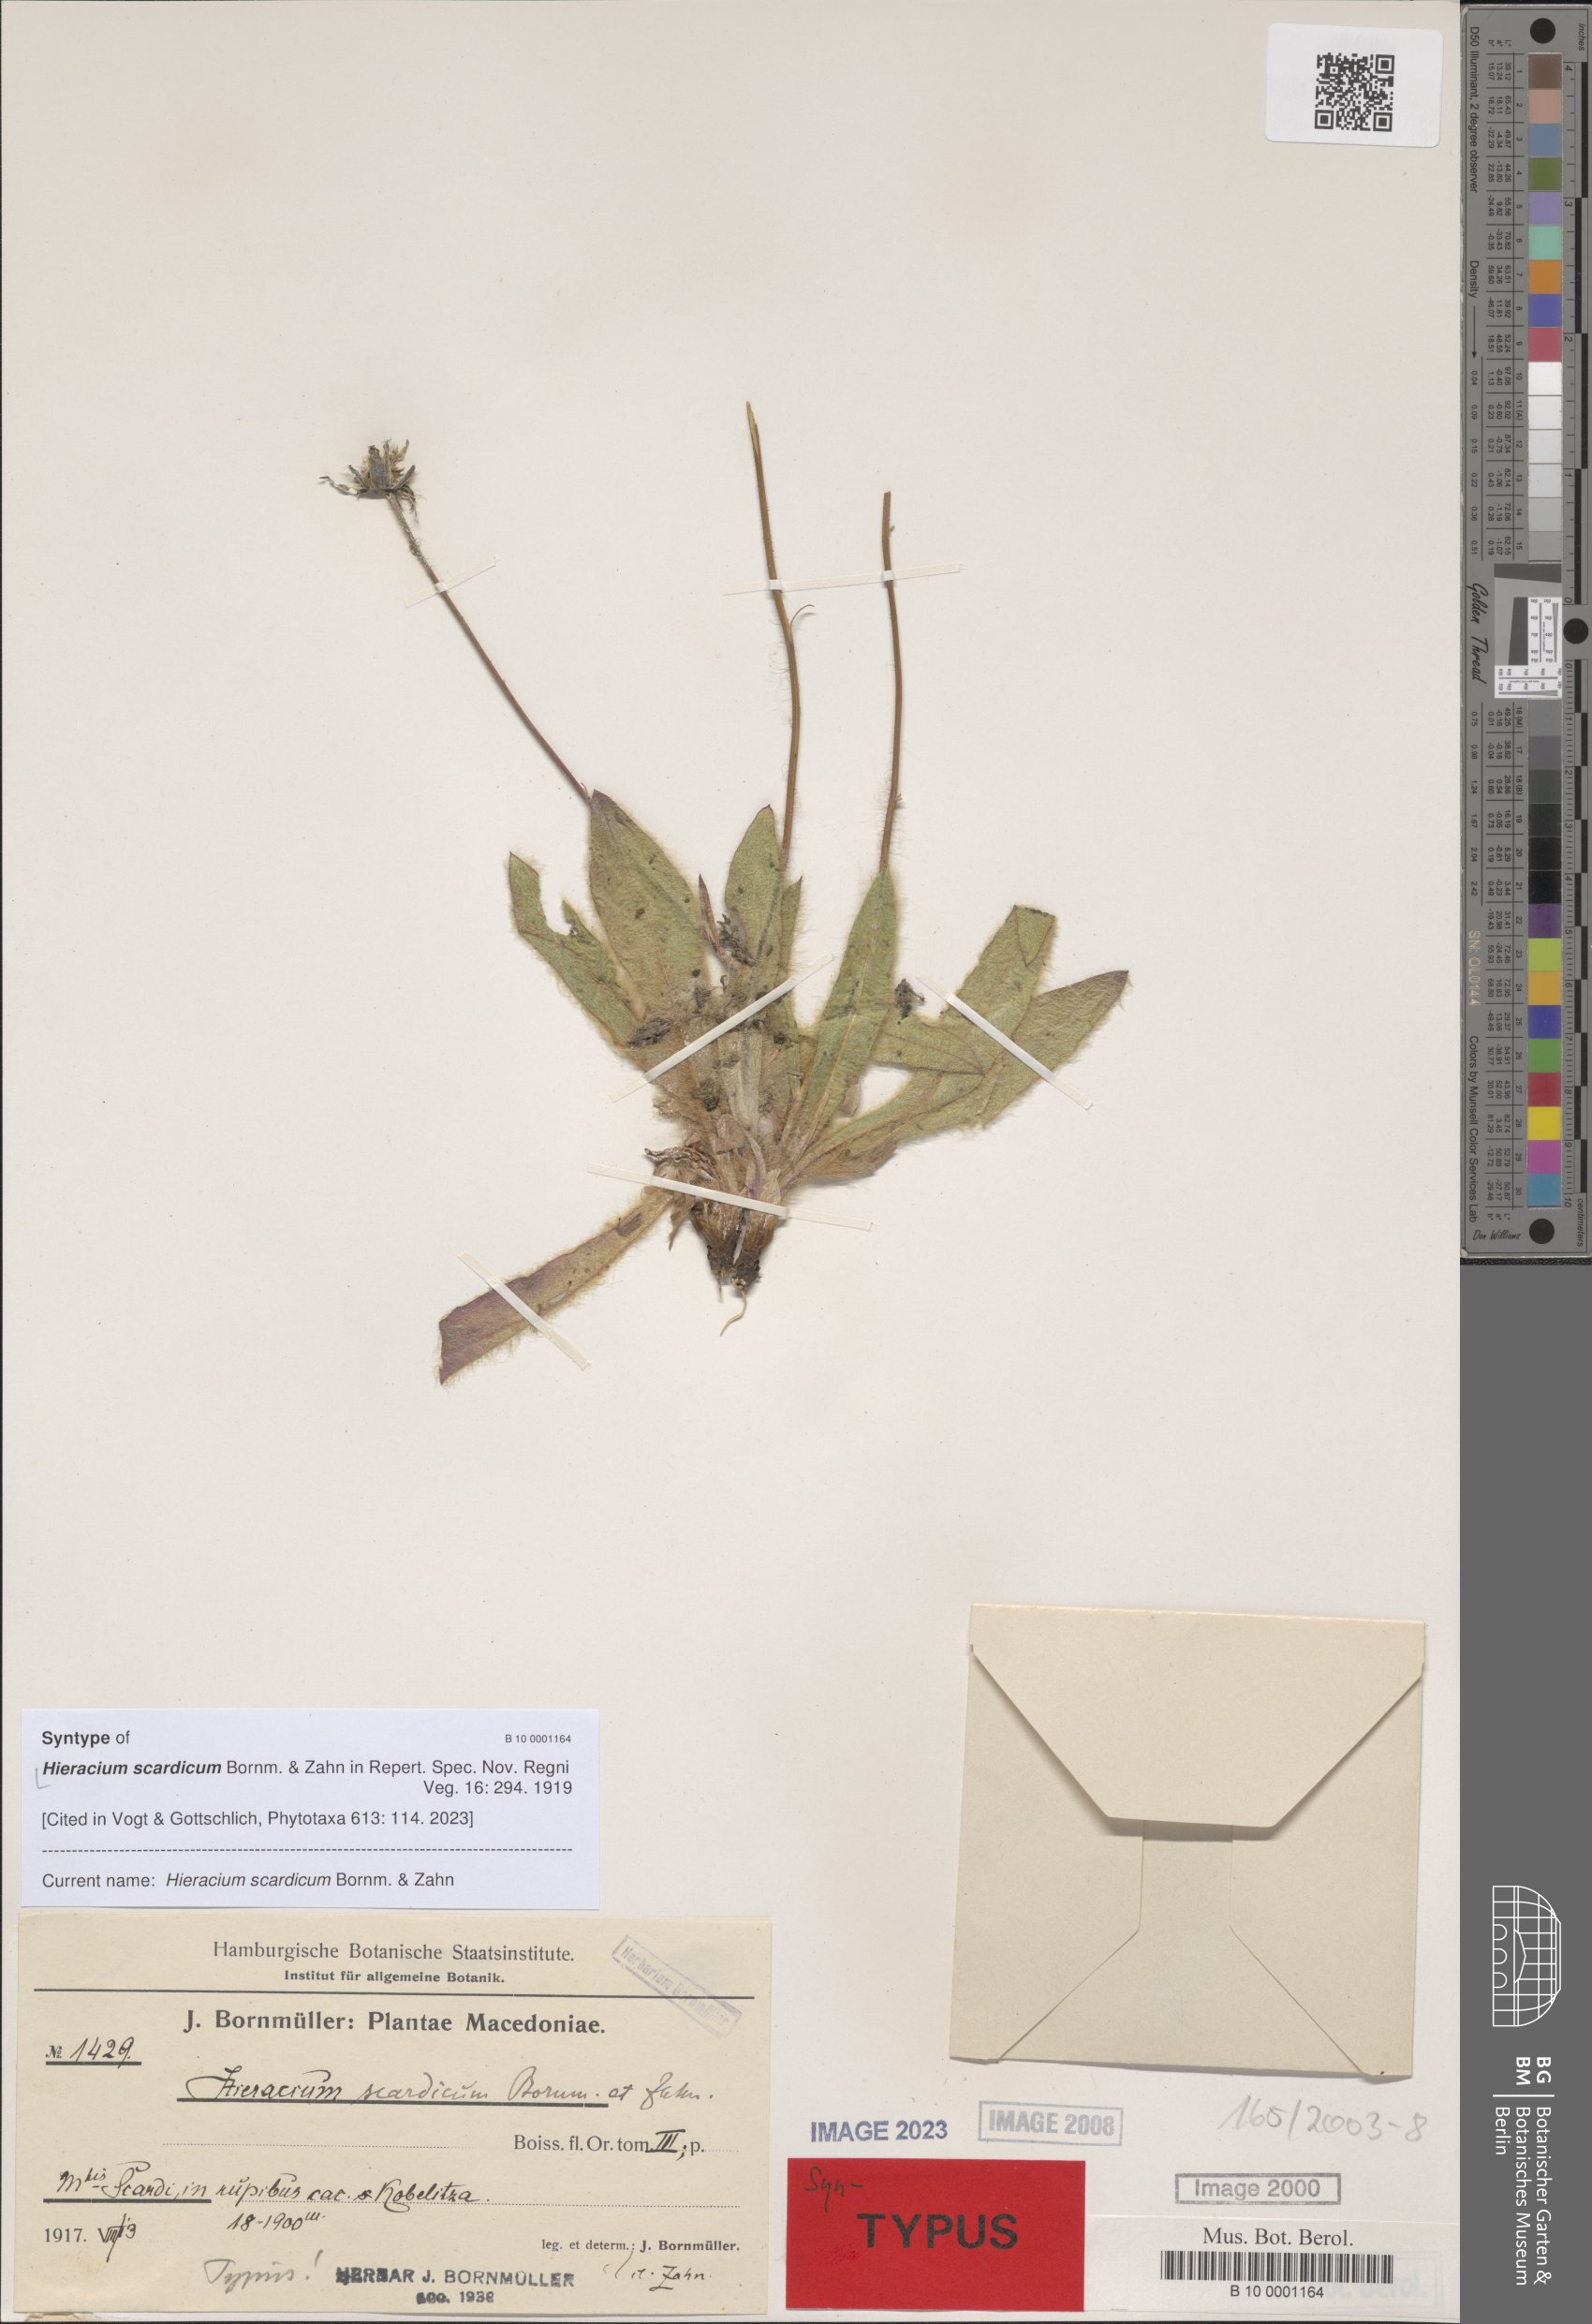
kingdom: Plantae
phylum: Tracheophyta
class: Magnoliopsida
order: Asterales
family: Asteraceae
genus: Hieracium
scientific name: Hieracium scardicum
